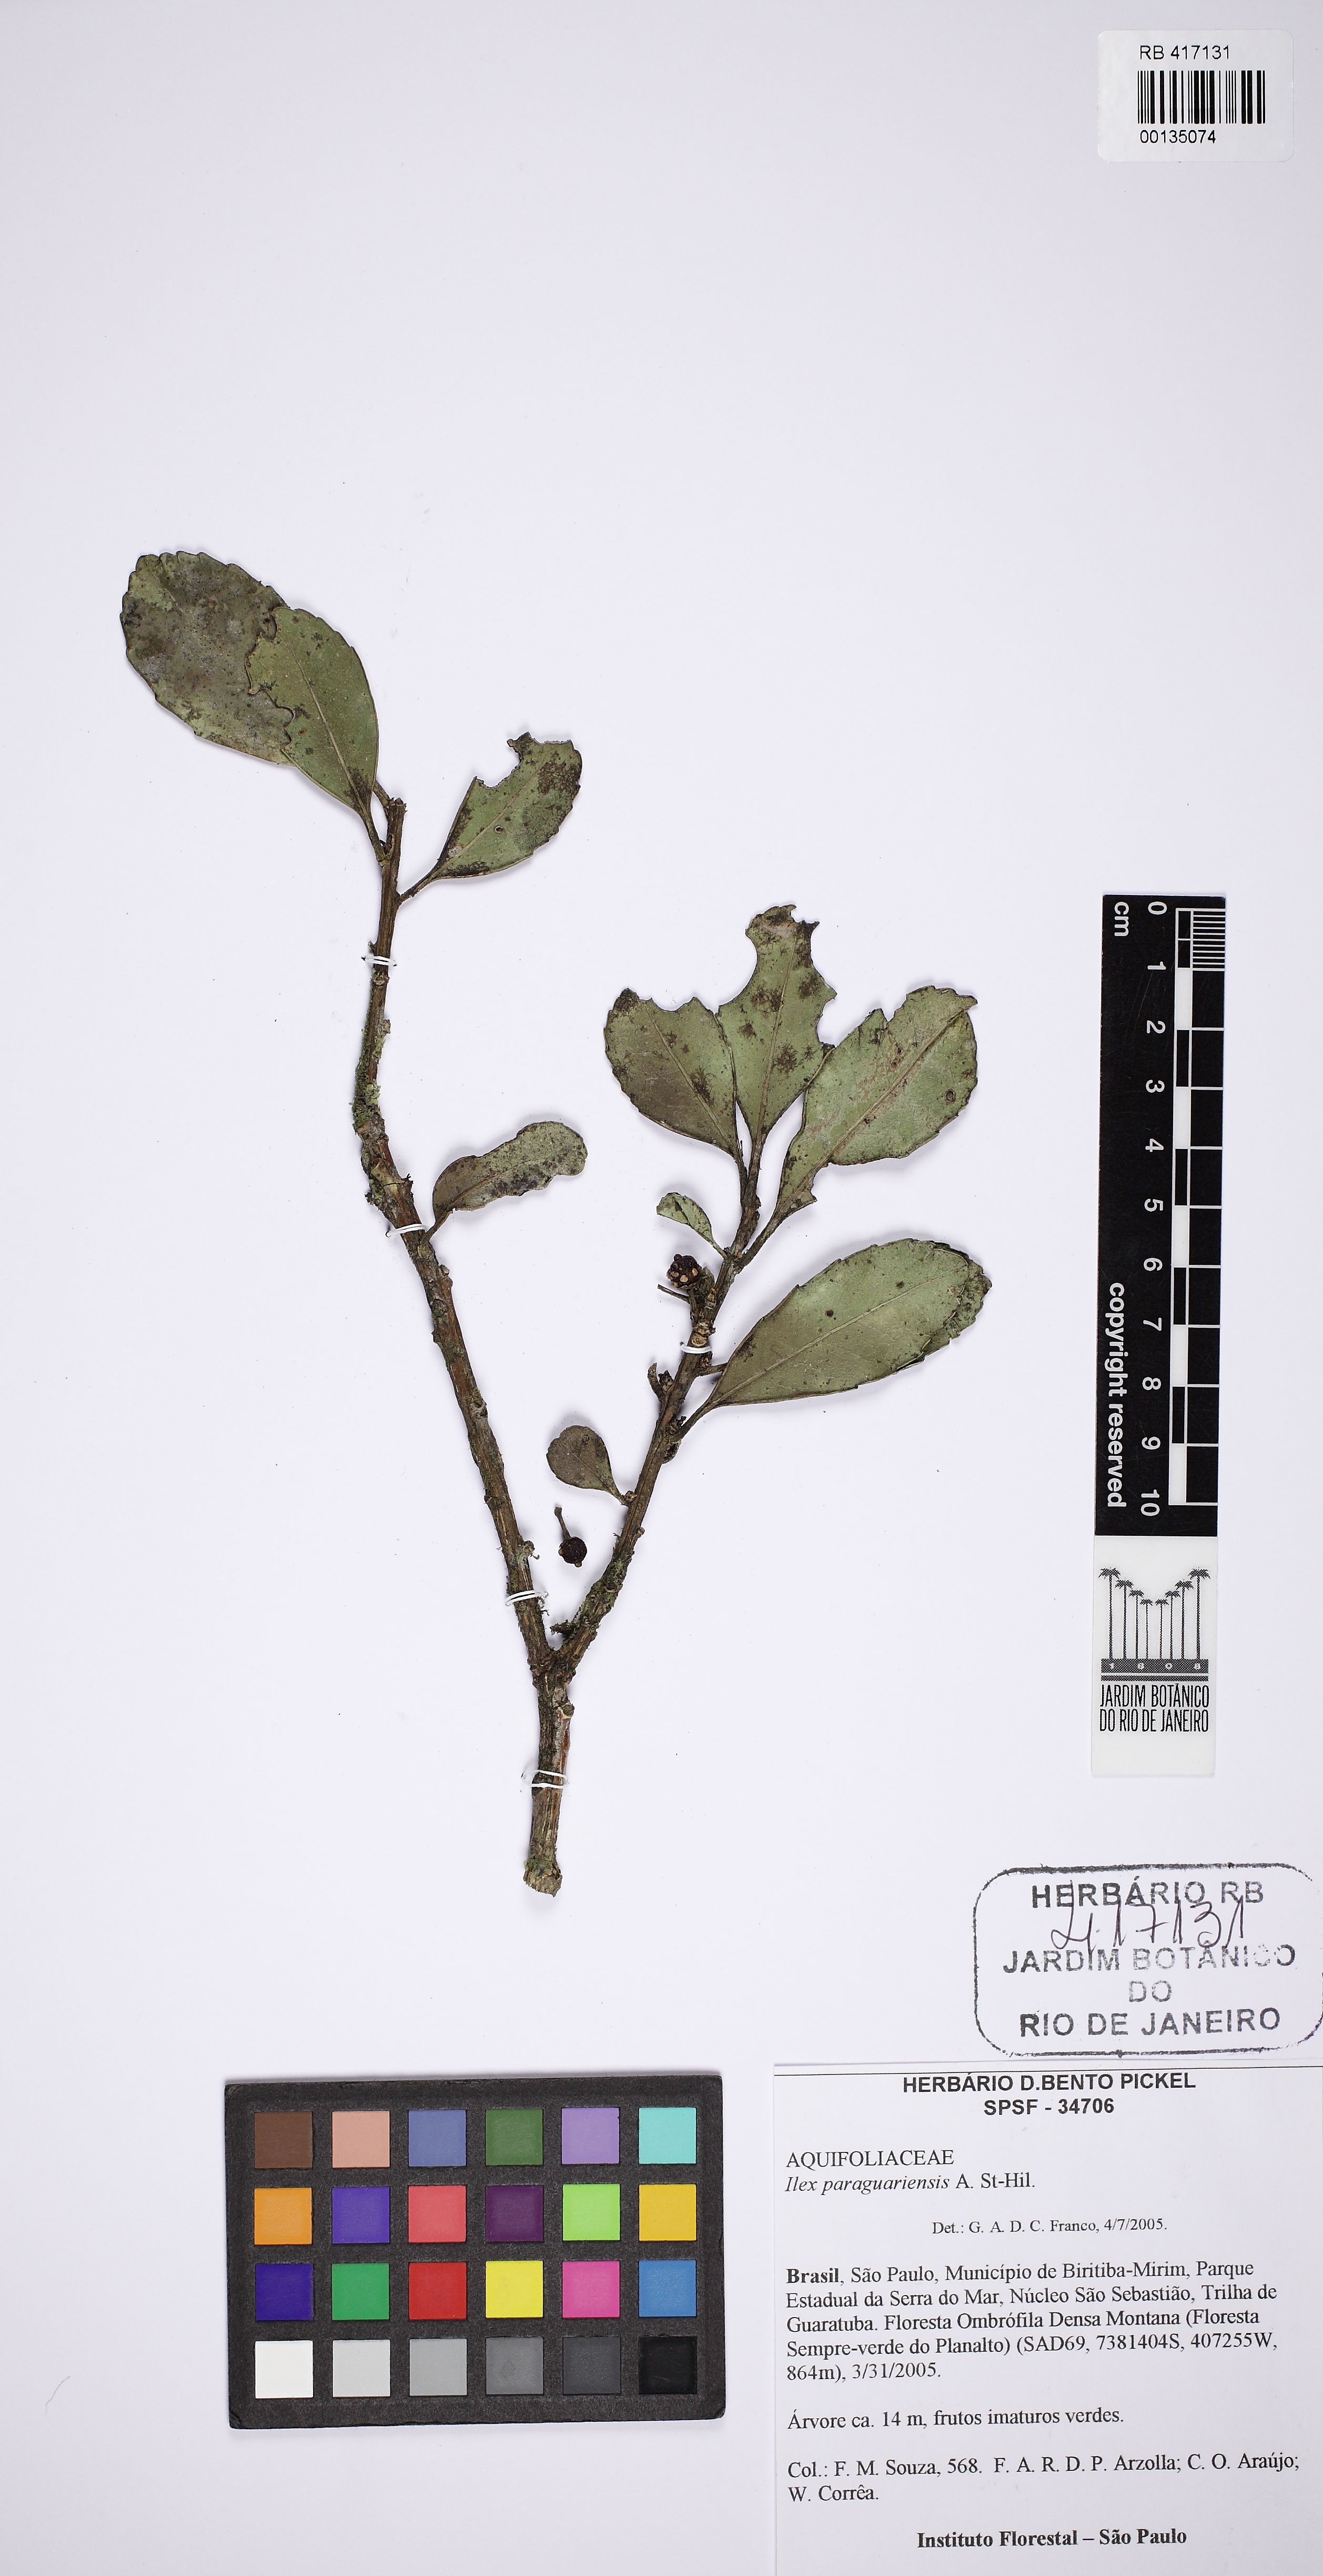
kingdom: Plantae
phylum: Tracheophyta
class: Magnoliopsida
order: Aquifoliales
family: Aquifoliaceae
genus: Ilex
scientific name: Ilex paraguariensis
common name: Paraguay tea
